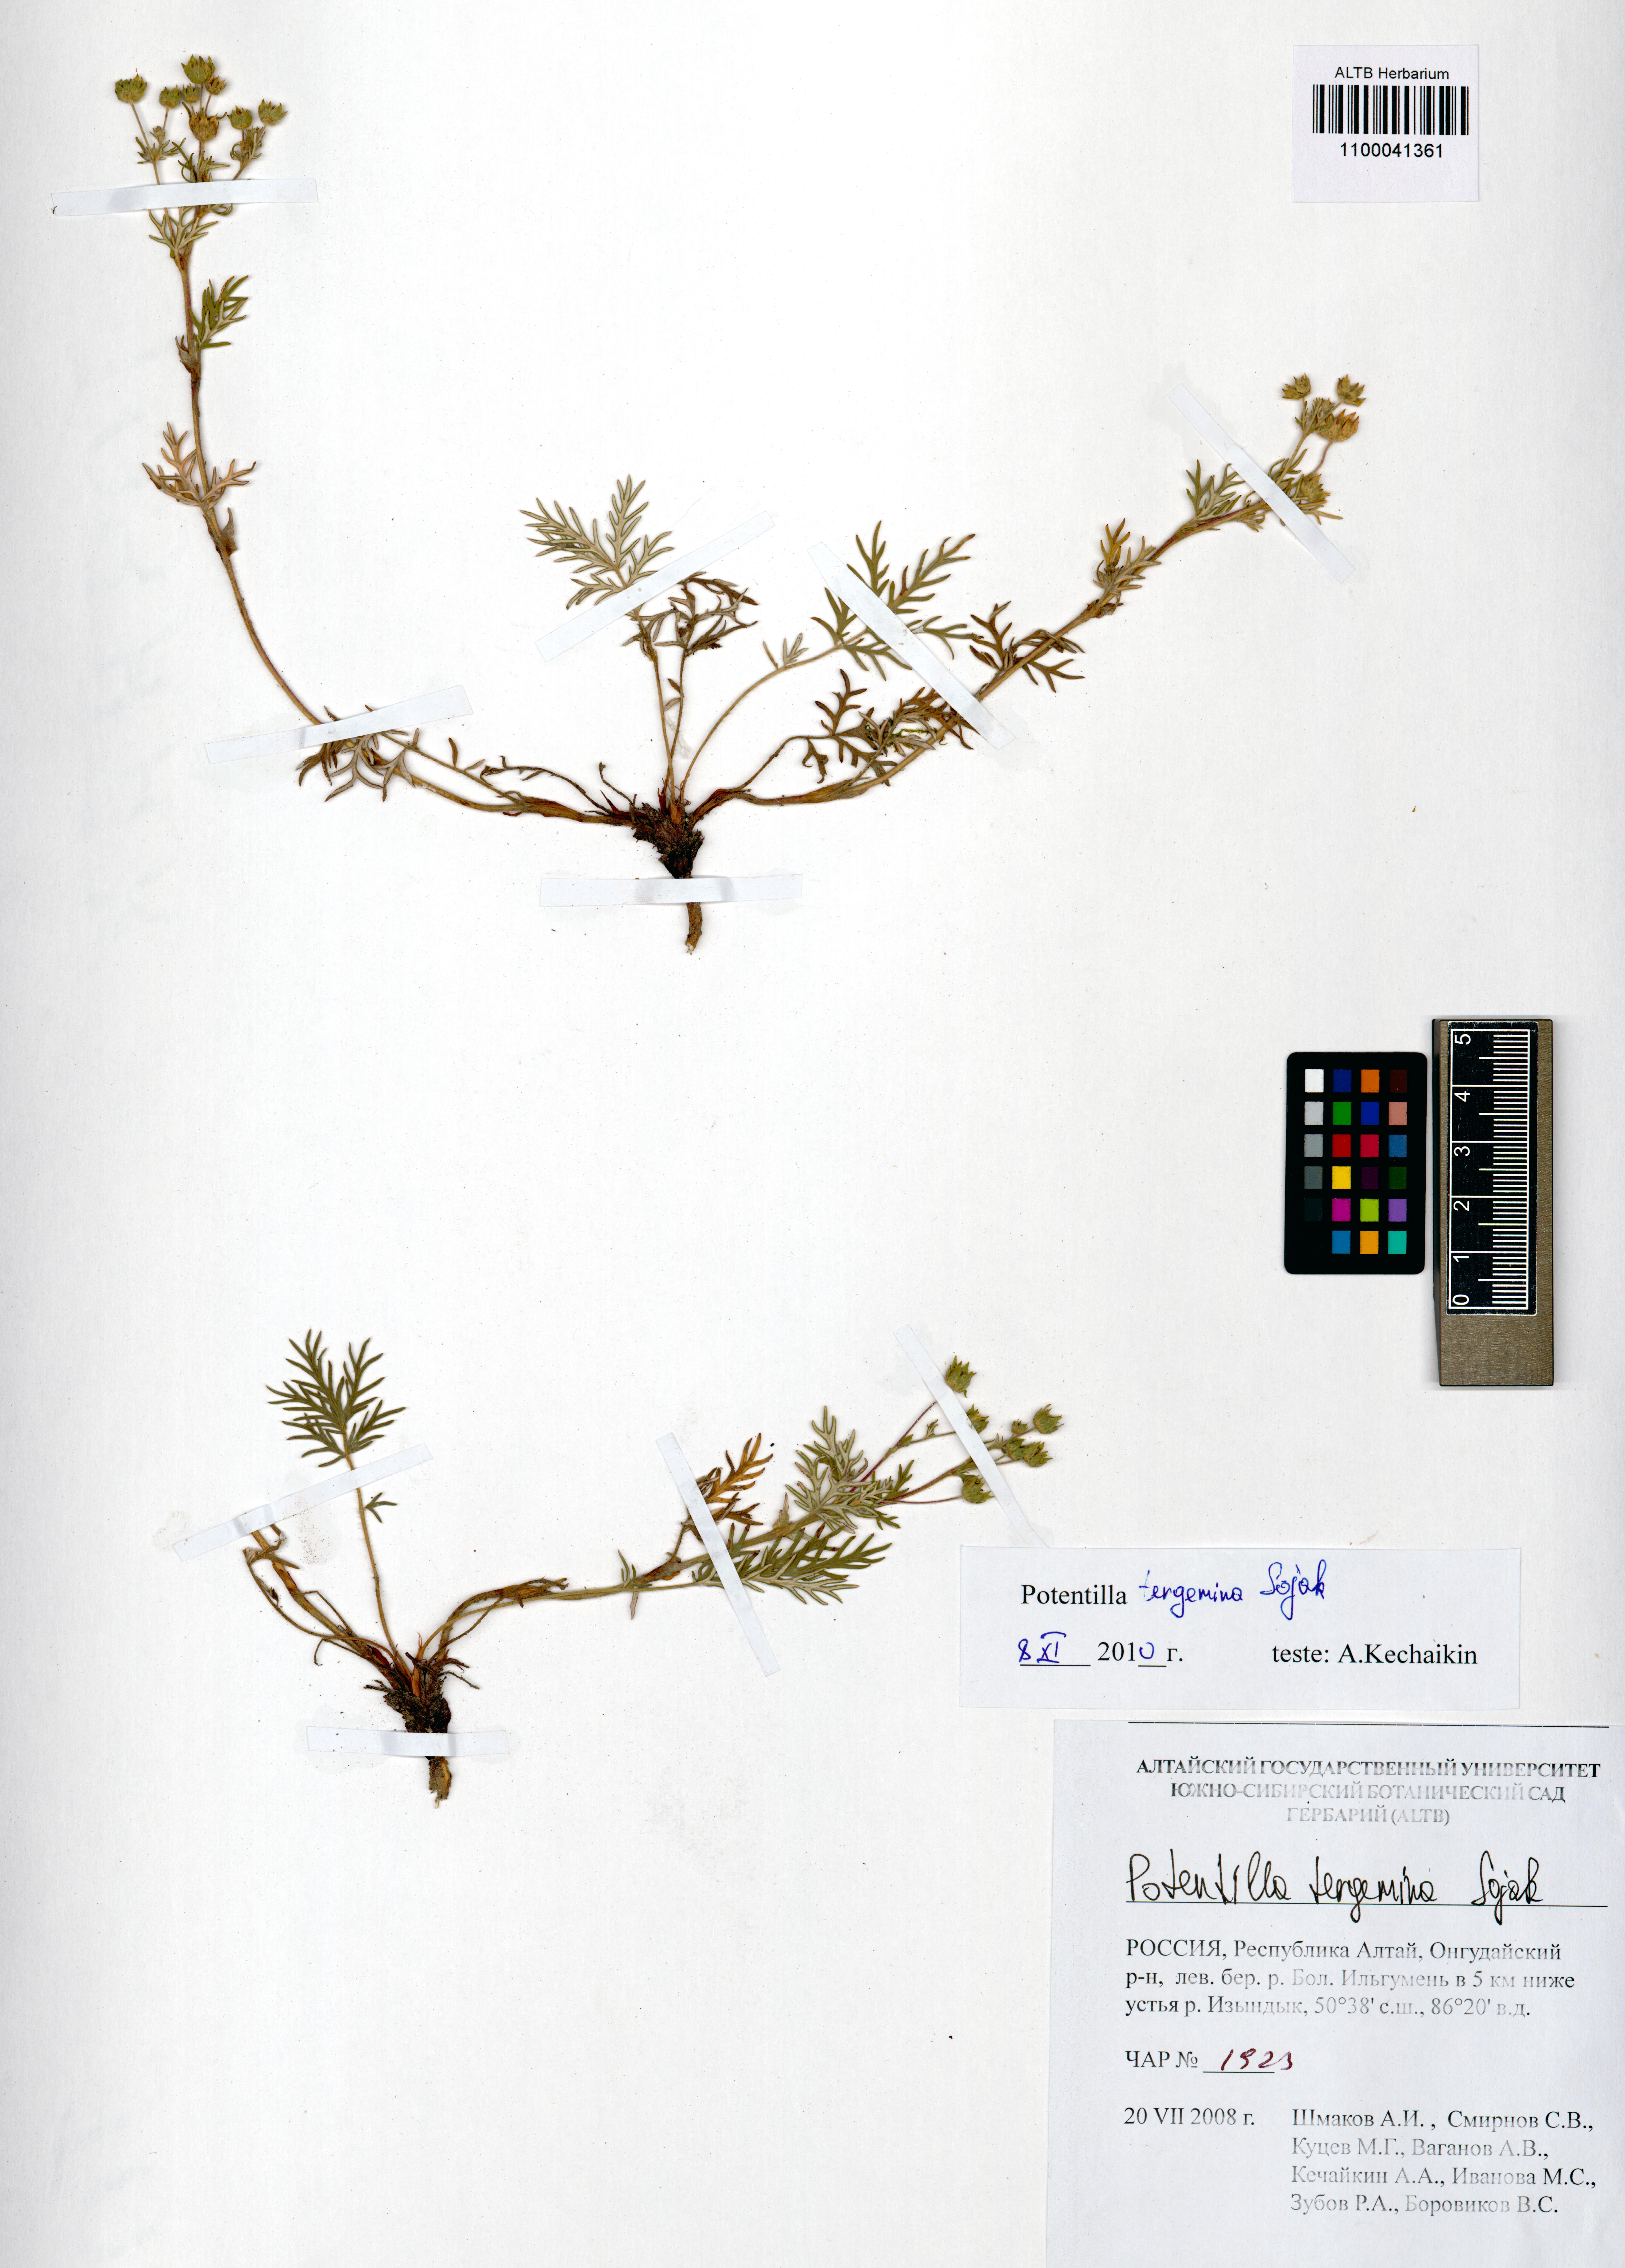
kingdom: Plantae
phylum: Tracheophyta
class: Magnoliopsida
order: Rosales
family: Rosaceae
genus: Potentilla
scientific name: Potentilla tergemina
